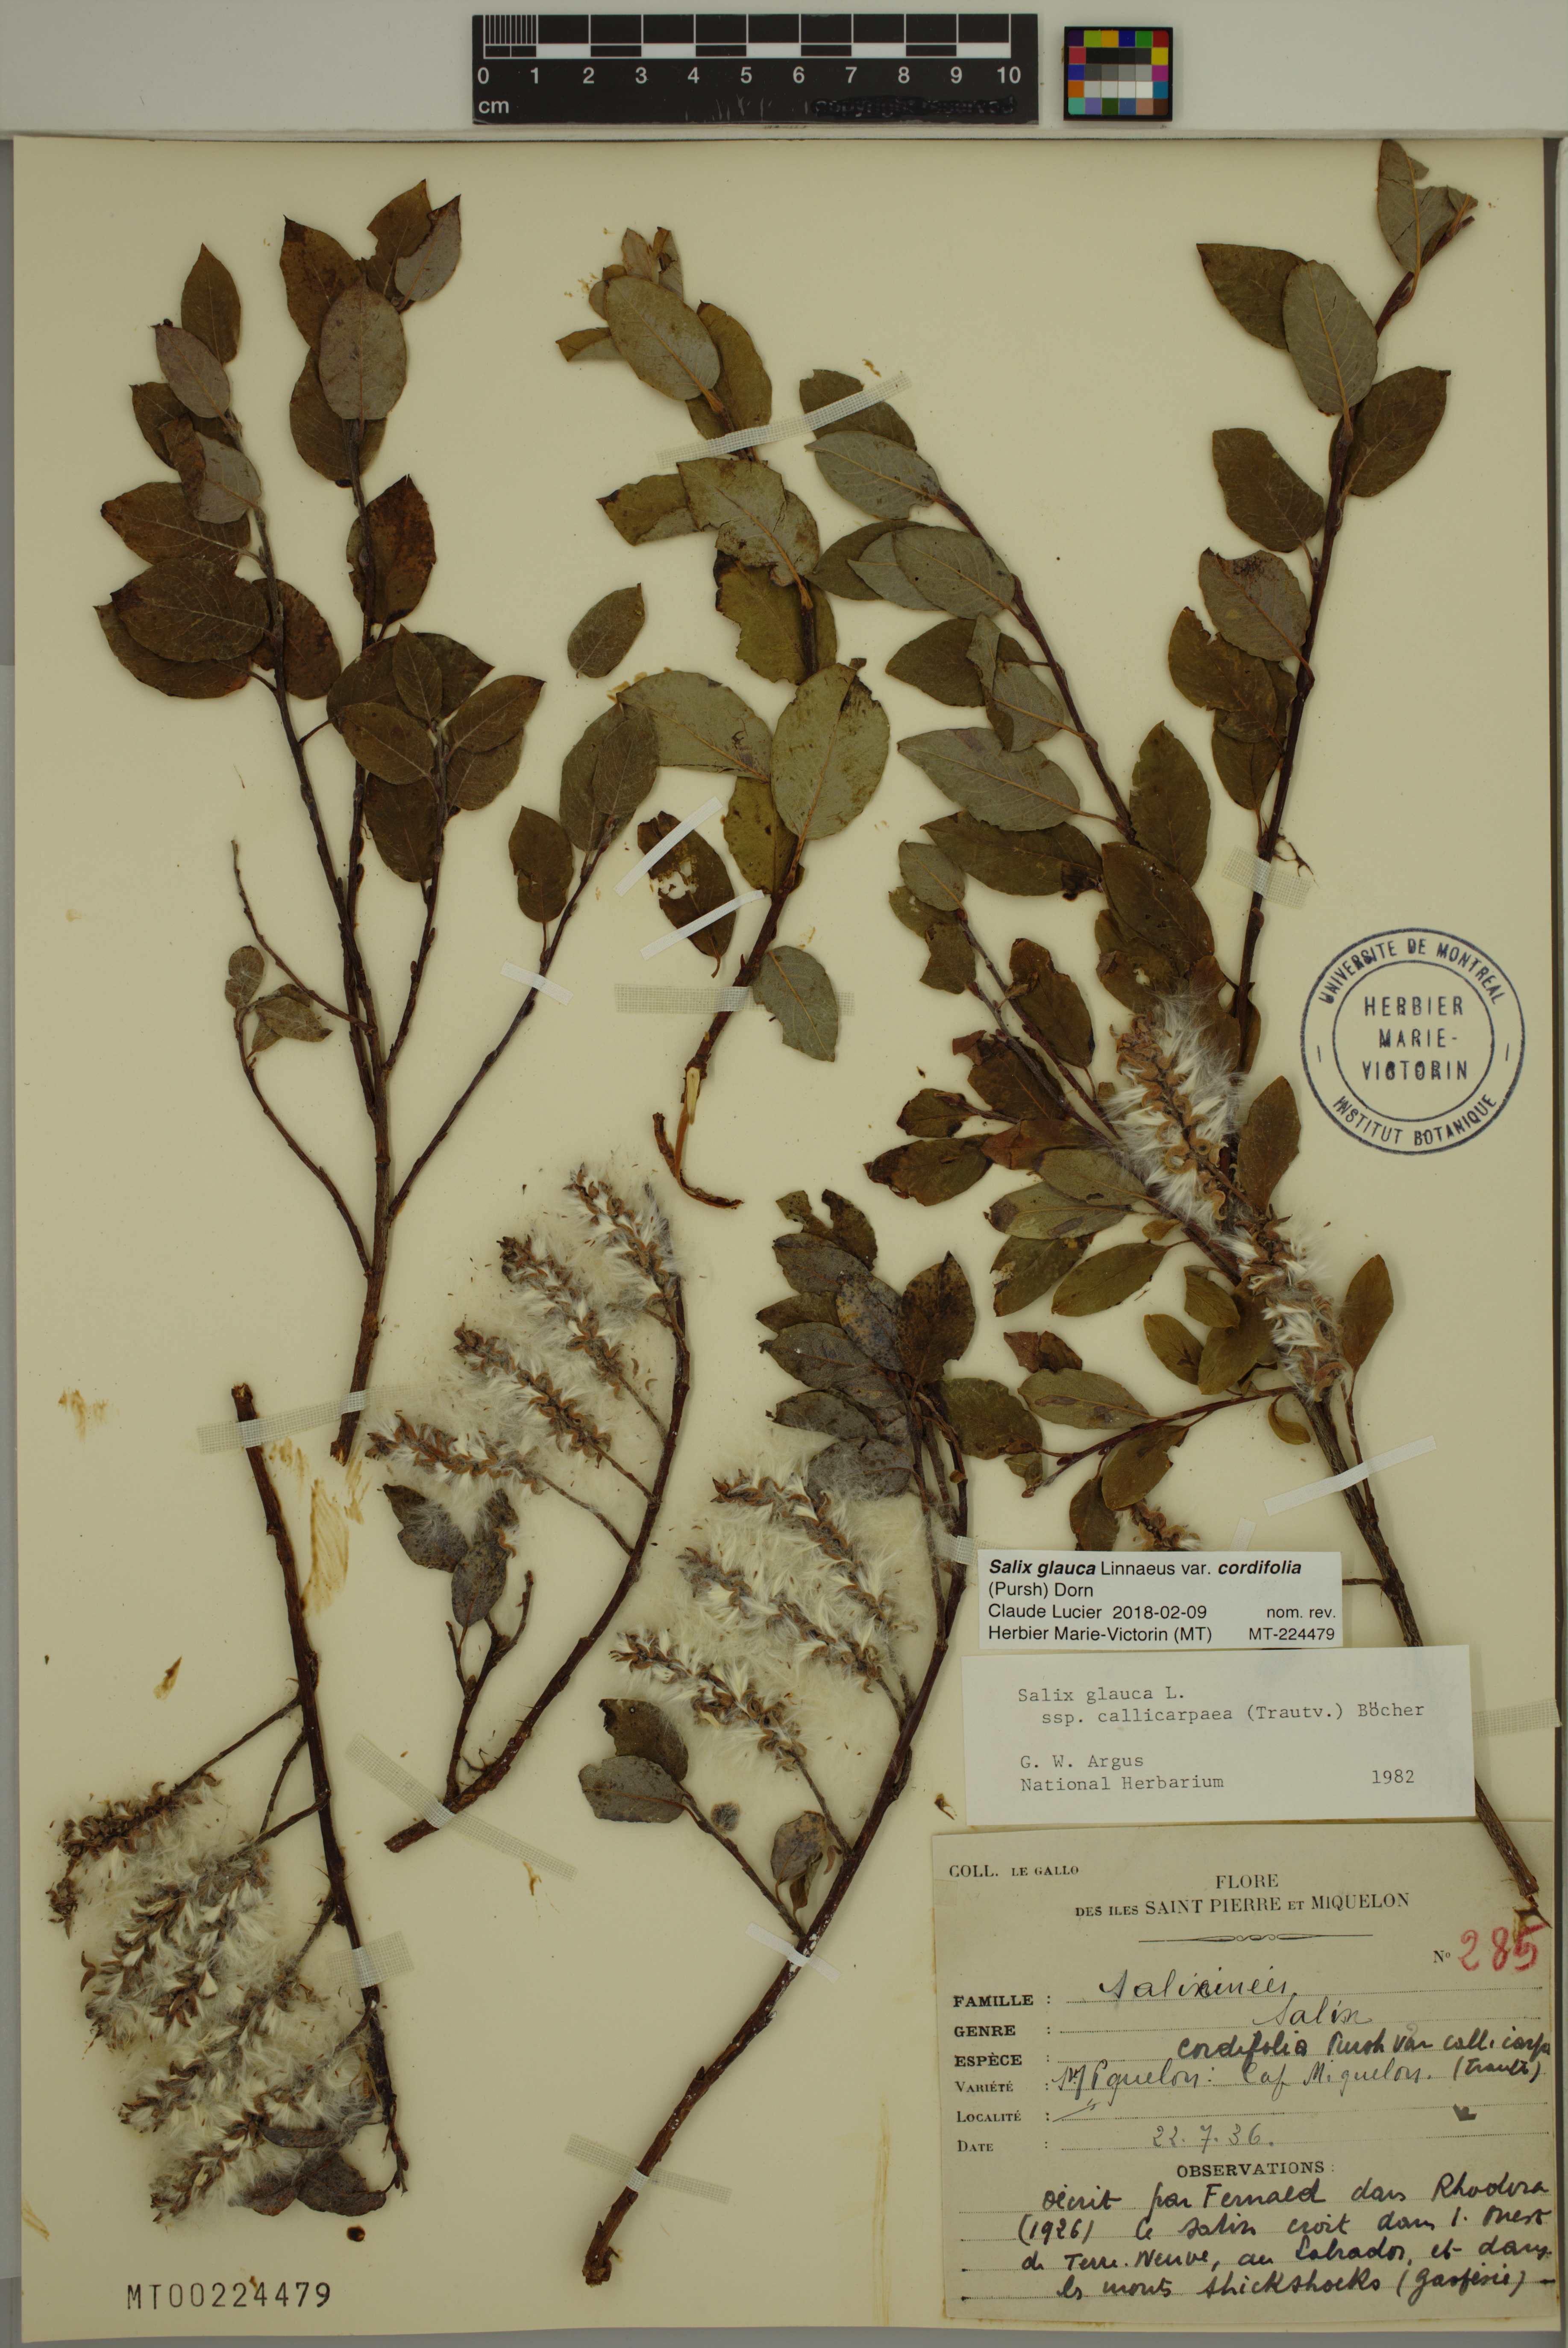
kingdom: Plantae
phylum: Tracheophyta
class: Magnoliopsida
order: Malpighiales
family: Salicaceae
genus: Salix
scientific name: Salix glauca
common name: Glaucous willow
